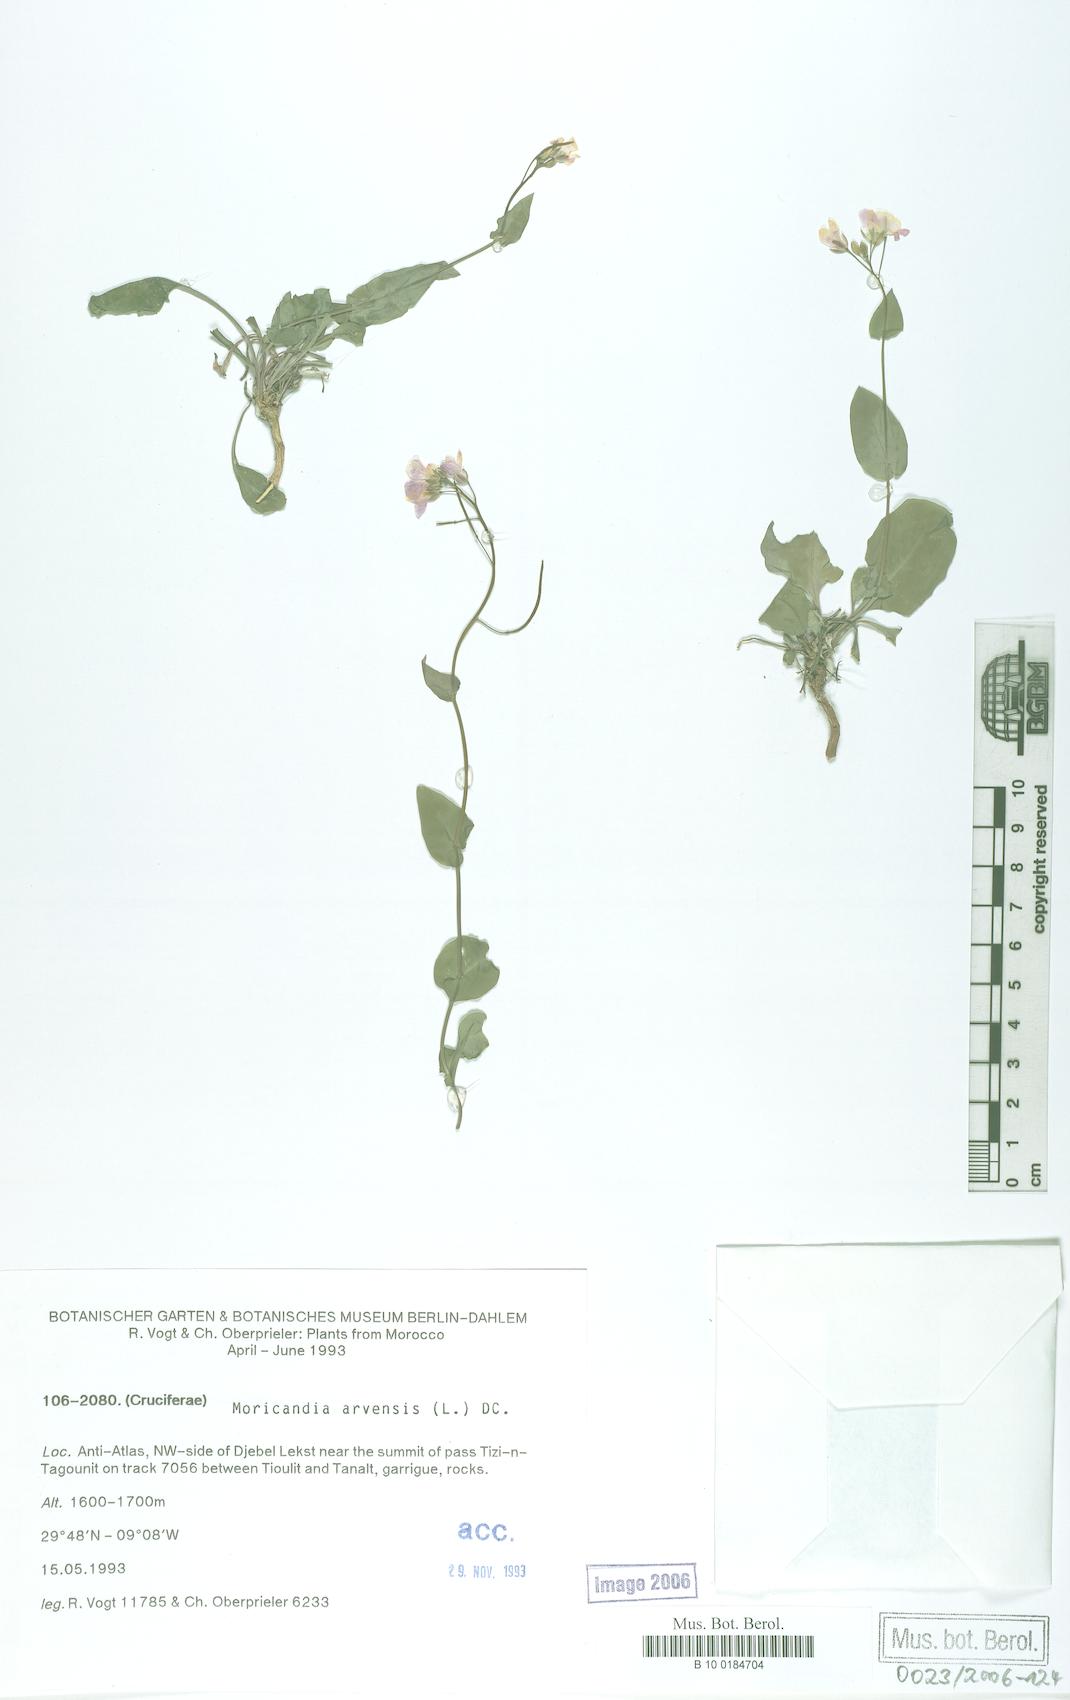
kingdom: Plantae
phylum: Tracheophyta
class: Magnoliopsida
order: Brassicales
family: Brassicaceae
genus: Moricandia
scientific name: Moricandia arvensis
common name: Purple mistress
